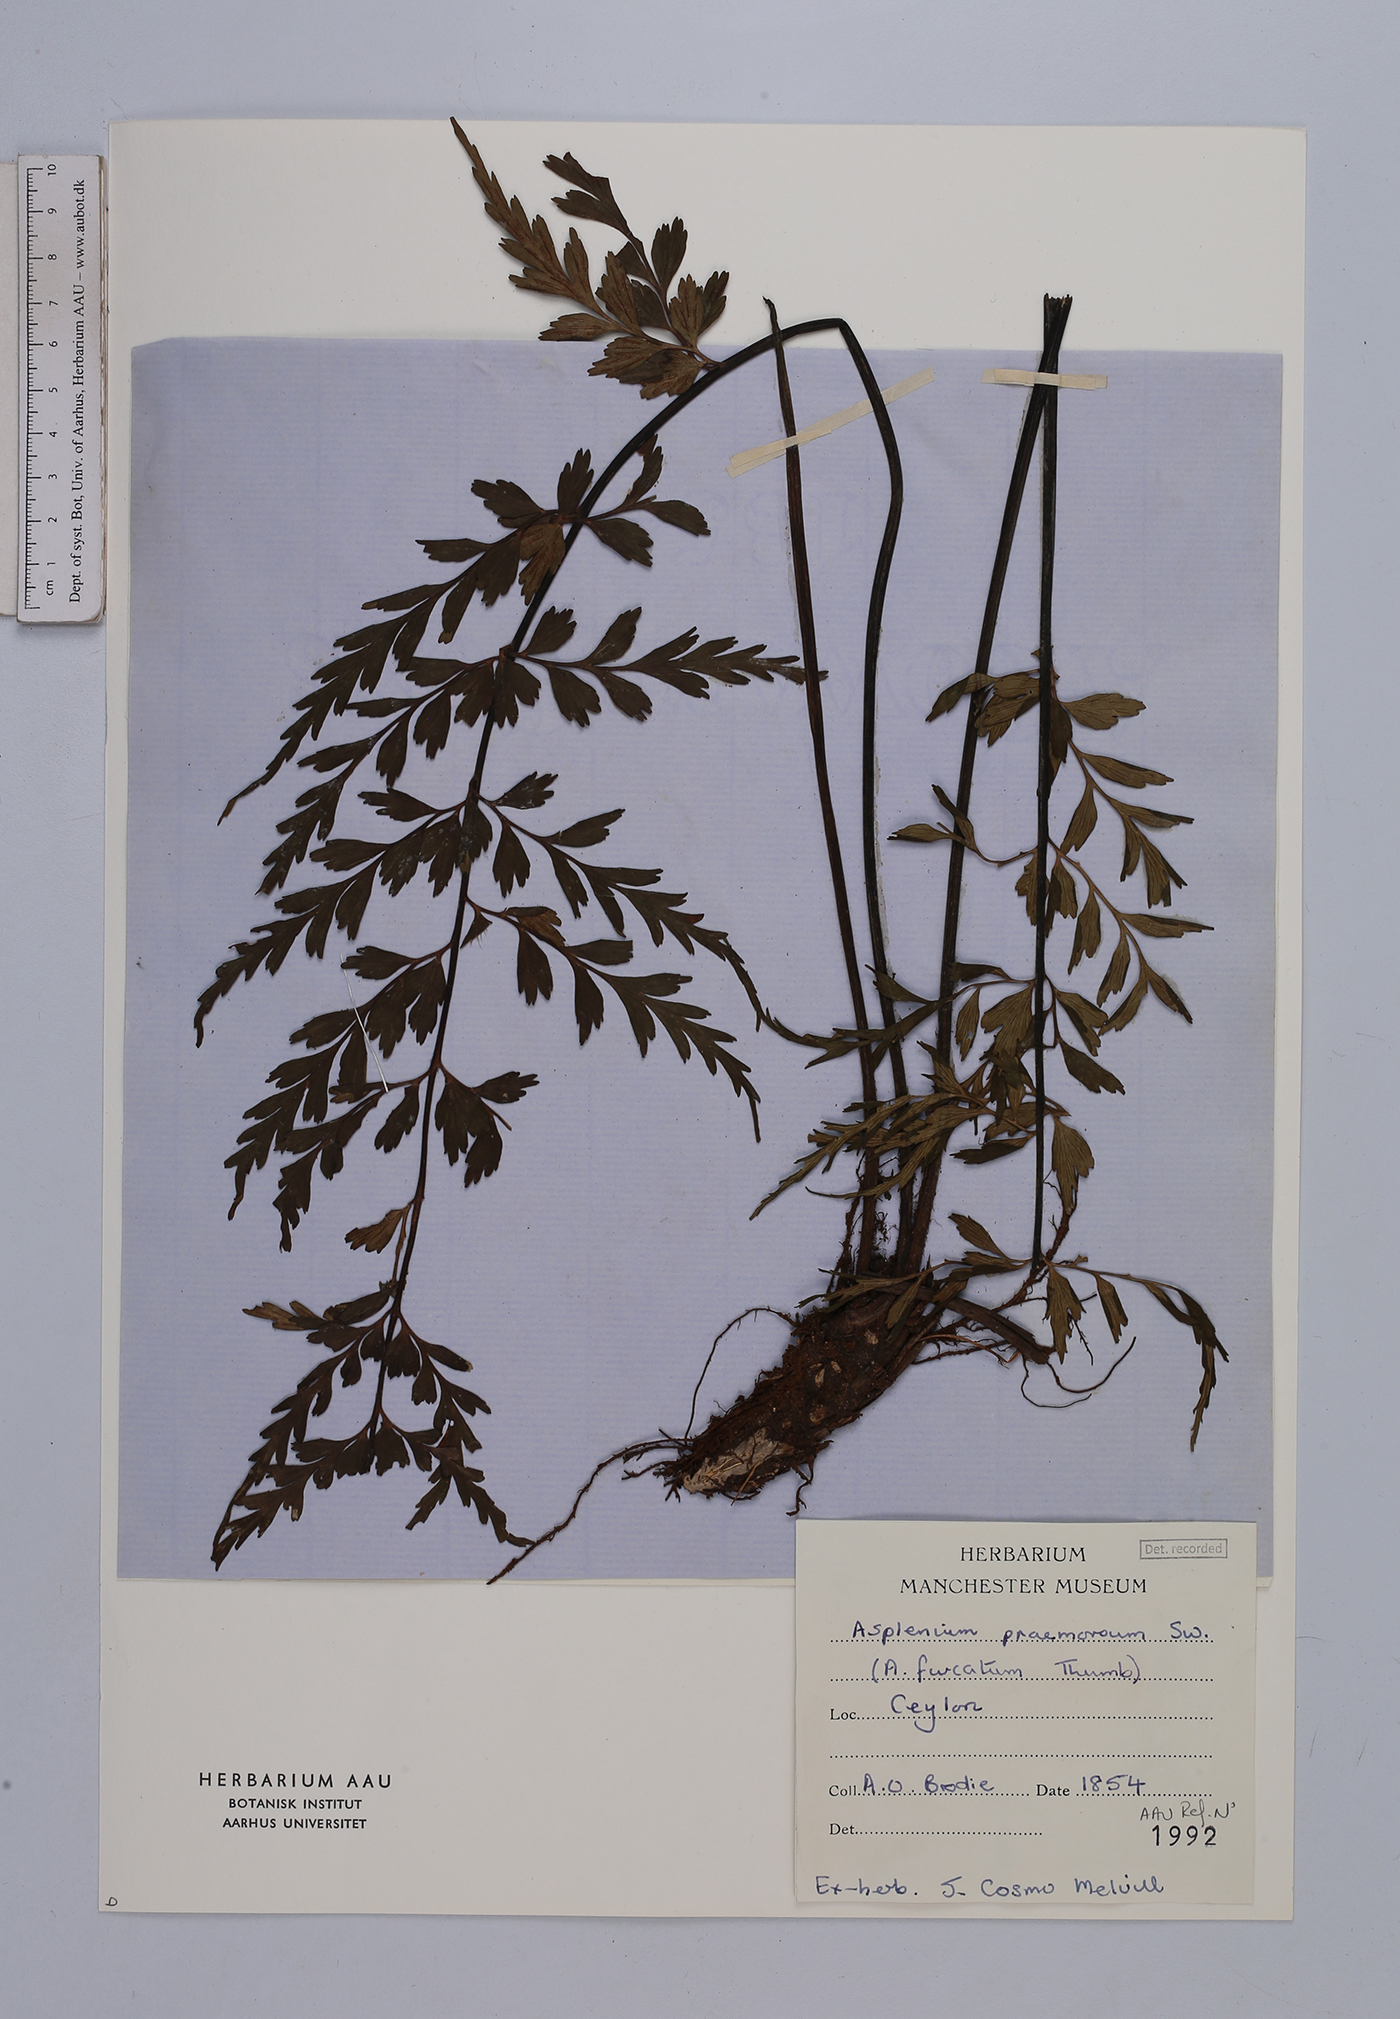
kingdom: Plantae
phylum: Tracheophyta
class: Polypodiopsida
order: Polypodiales
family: Aspleniaceae
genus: Asplenium
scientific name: Asplenium praemorsum
